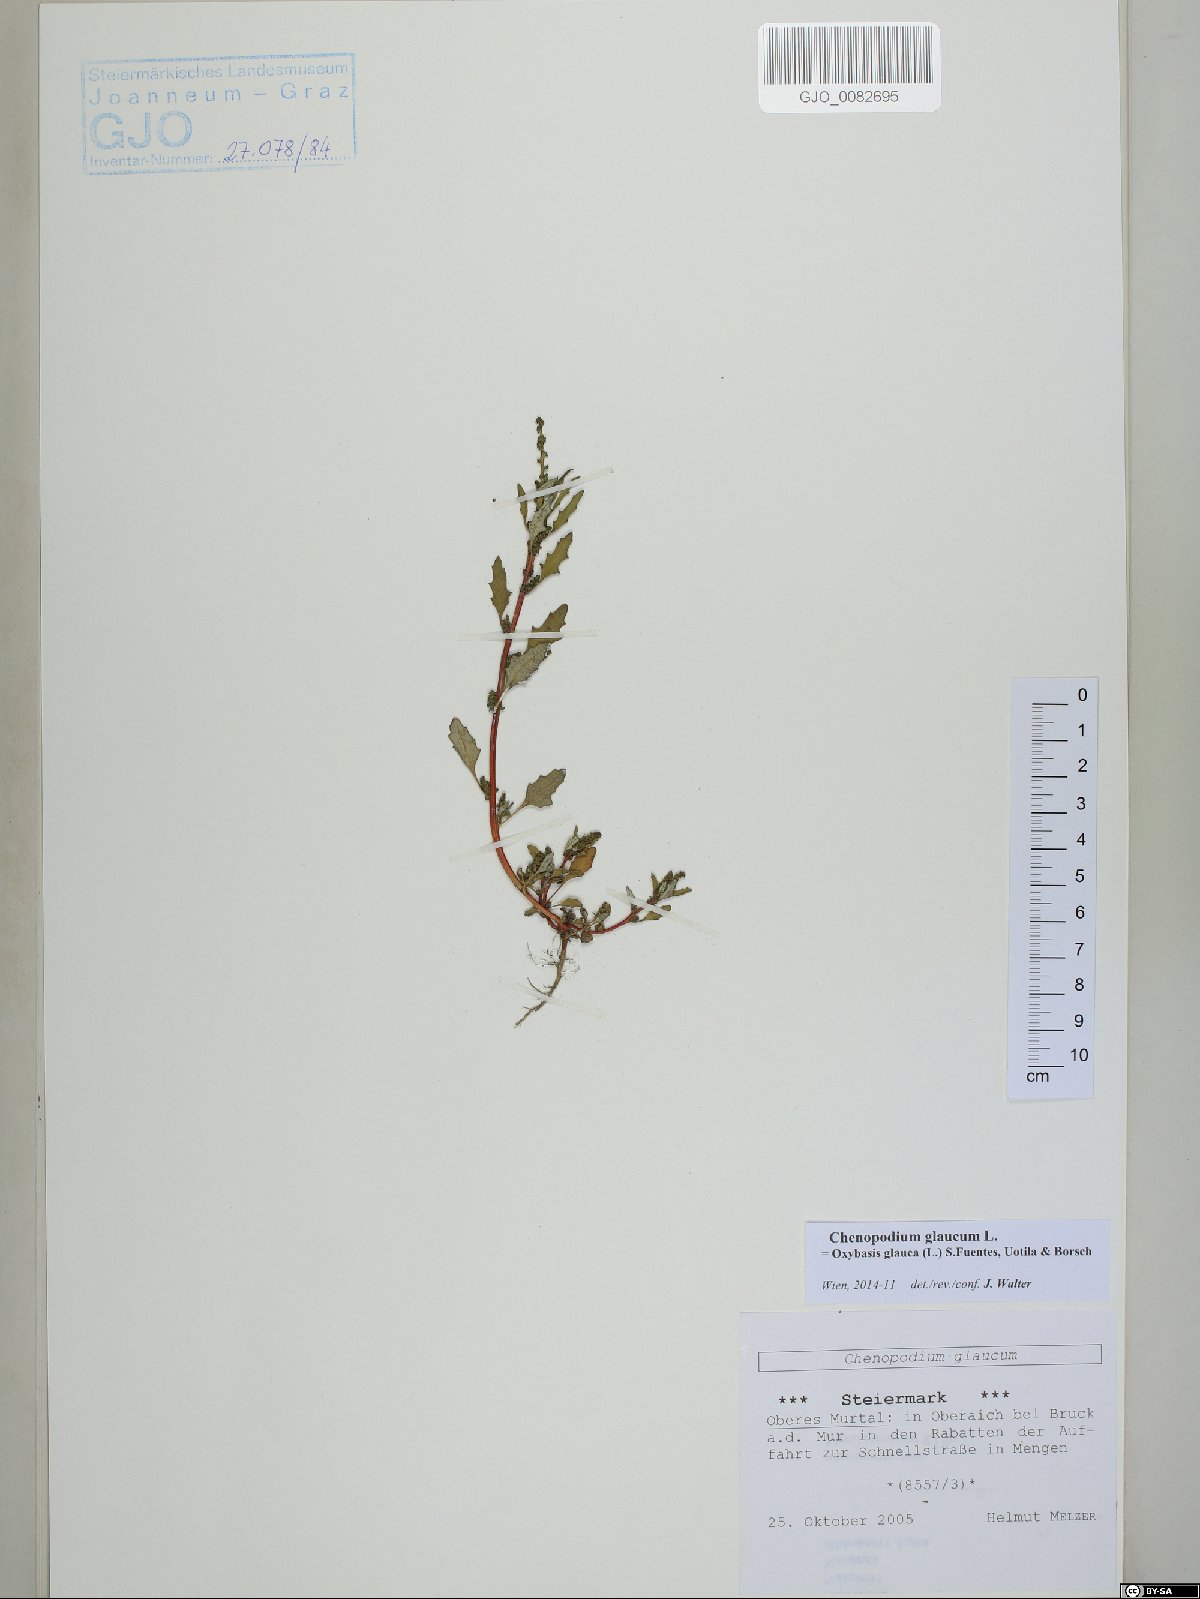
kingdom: Plantae
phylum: Tracheophyta
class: Magnoliopsida
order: Caryophyllales
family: Amaranthaceae
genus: Oxybasis
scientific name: Oxybasis glauca
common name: Glaucous goosefoot
